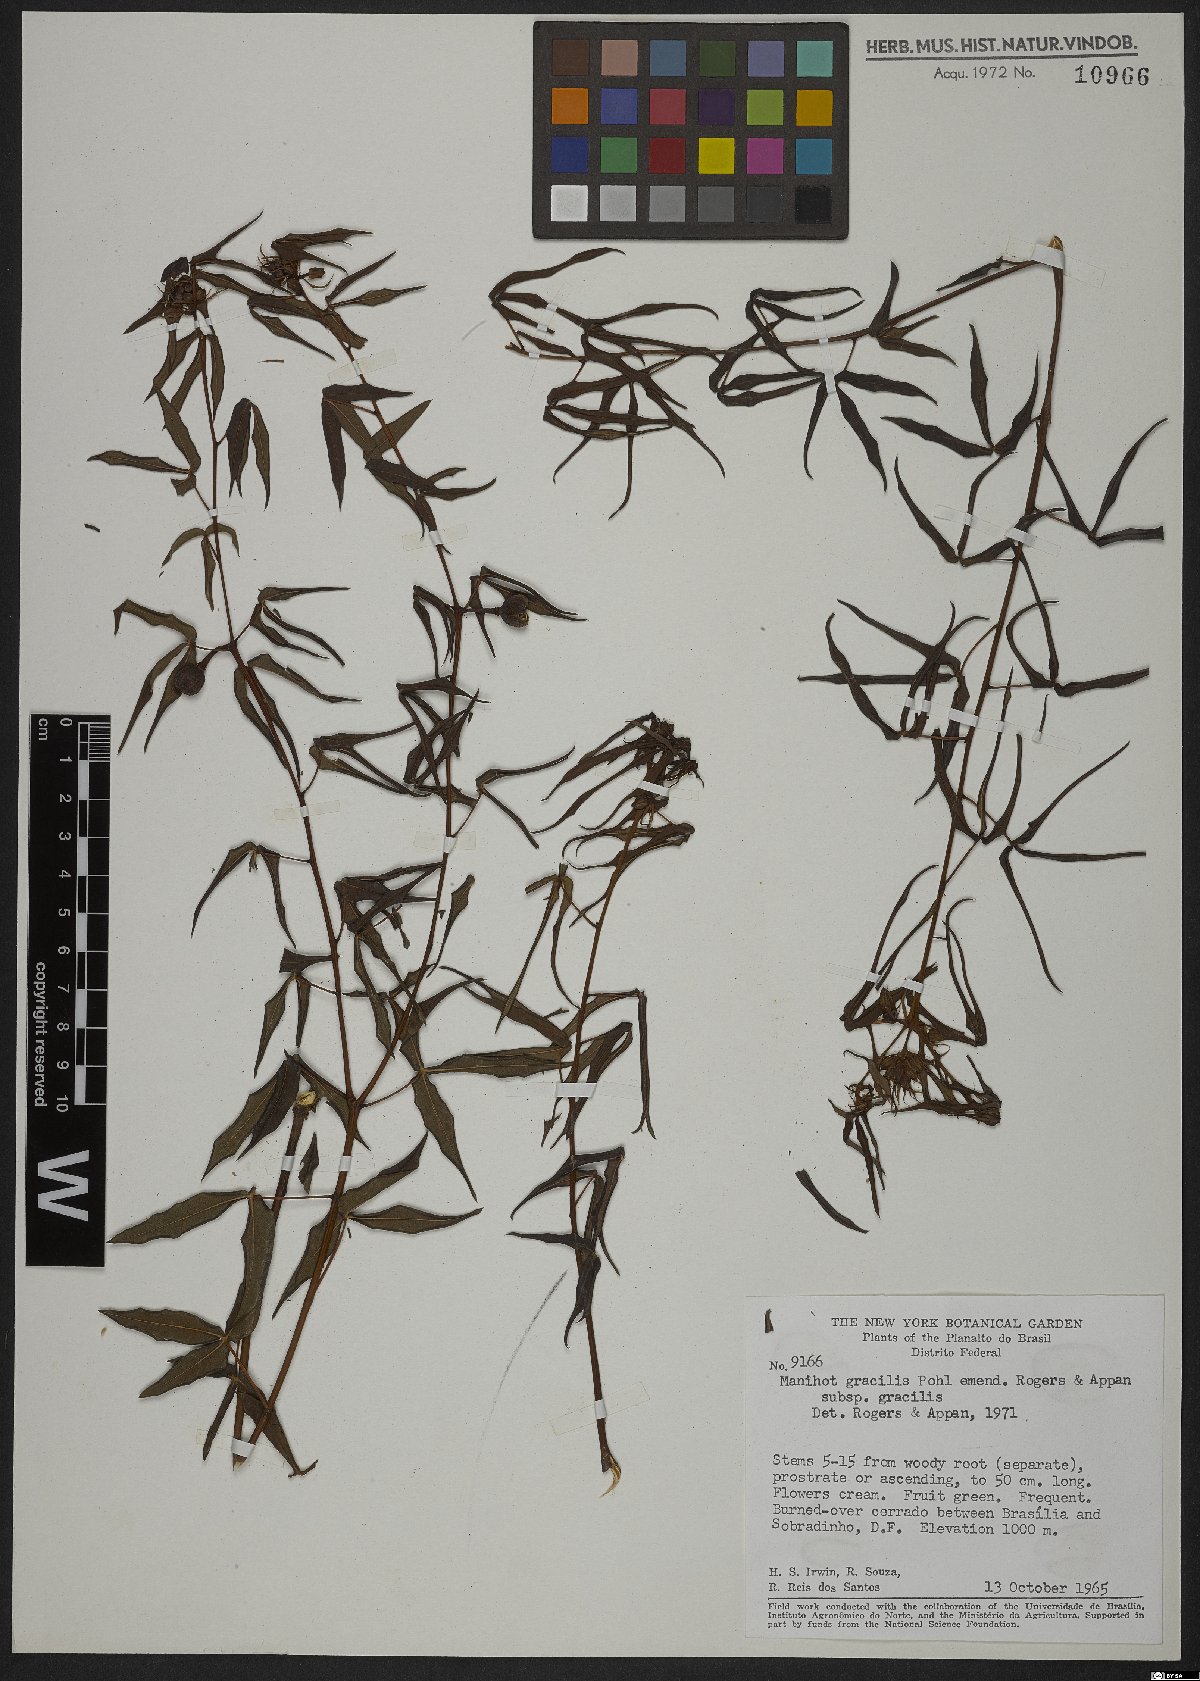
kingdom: Plantae
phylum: Tracheophyta
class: Magnoliopsida
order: Malpighiales
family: Euphorbiaceae
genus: Manihot
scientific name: Manihot gracilis
